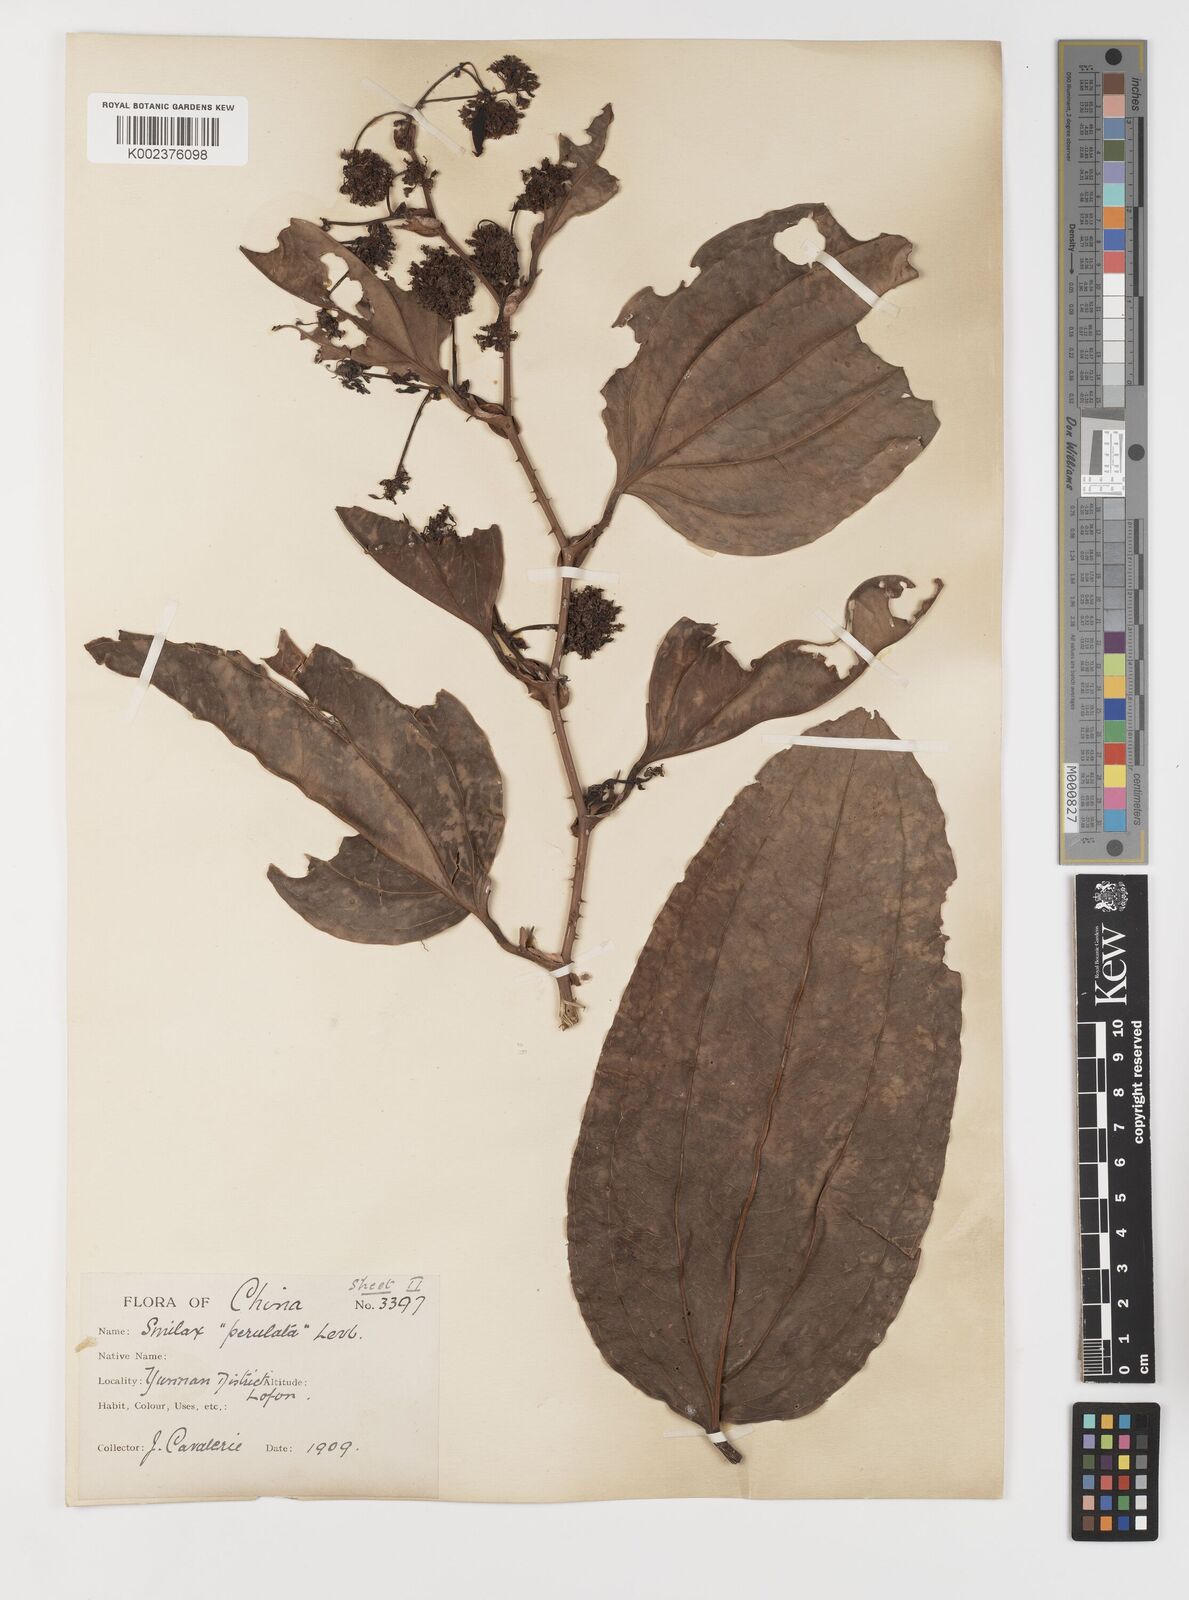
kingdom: Plantae
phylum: Tracheophyta
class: Liliopsida
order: Liliales
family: Smilacaceae
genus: Smilax
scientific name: Smilax
